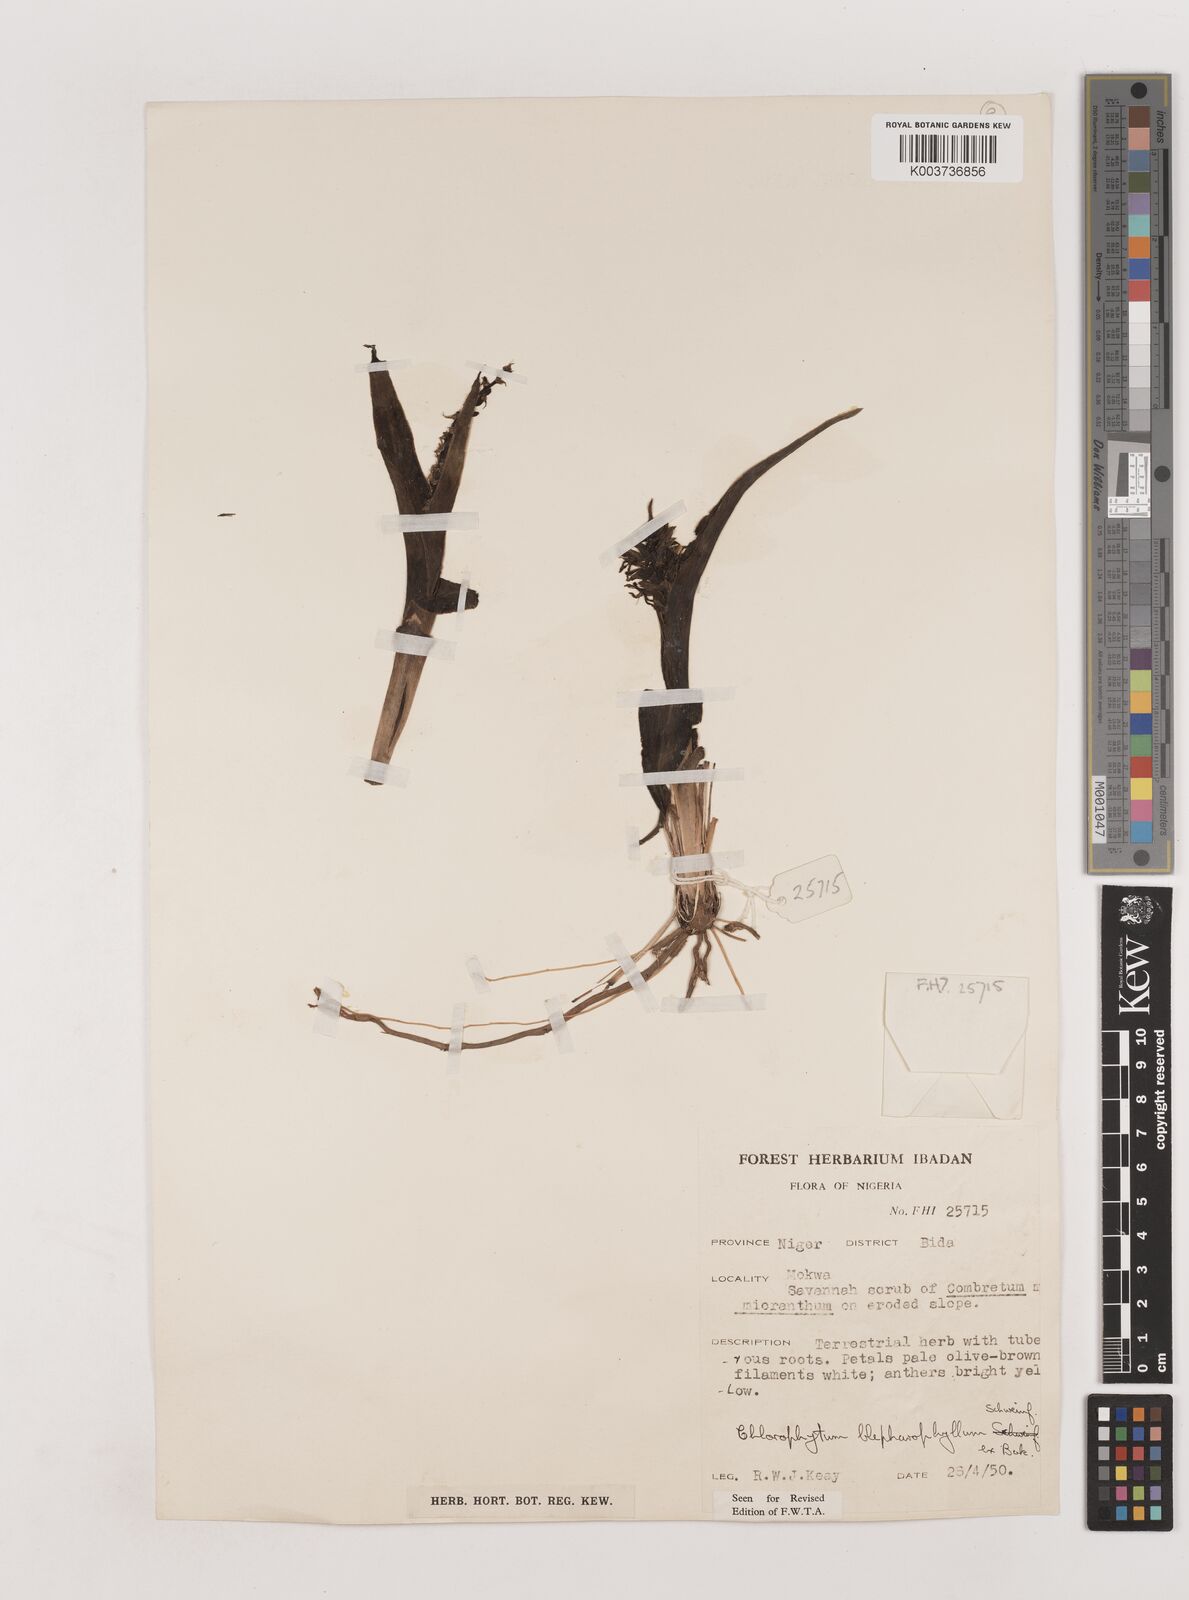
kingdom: Plantae
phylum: Tracheophyta
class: Liliopsida
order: Asparagales
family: Asparagaceae
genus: Chlorophytum
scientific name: Chlorophytum blepharophyllum
